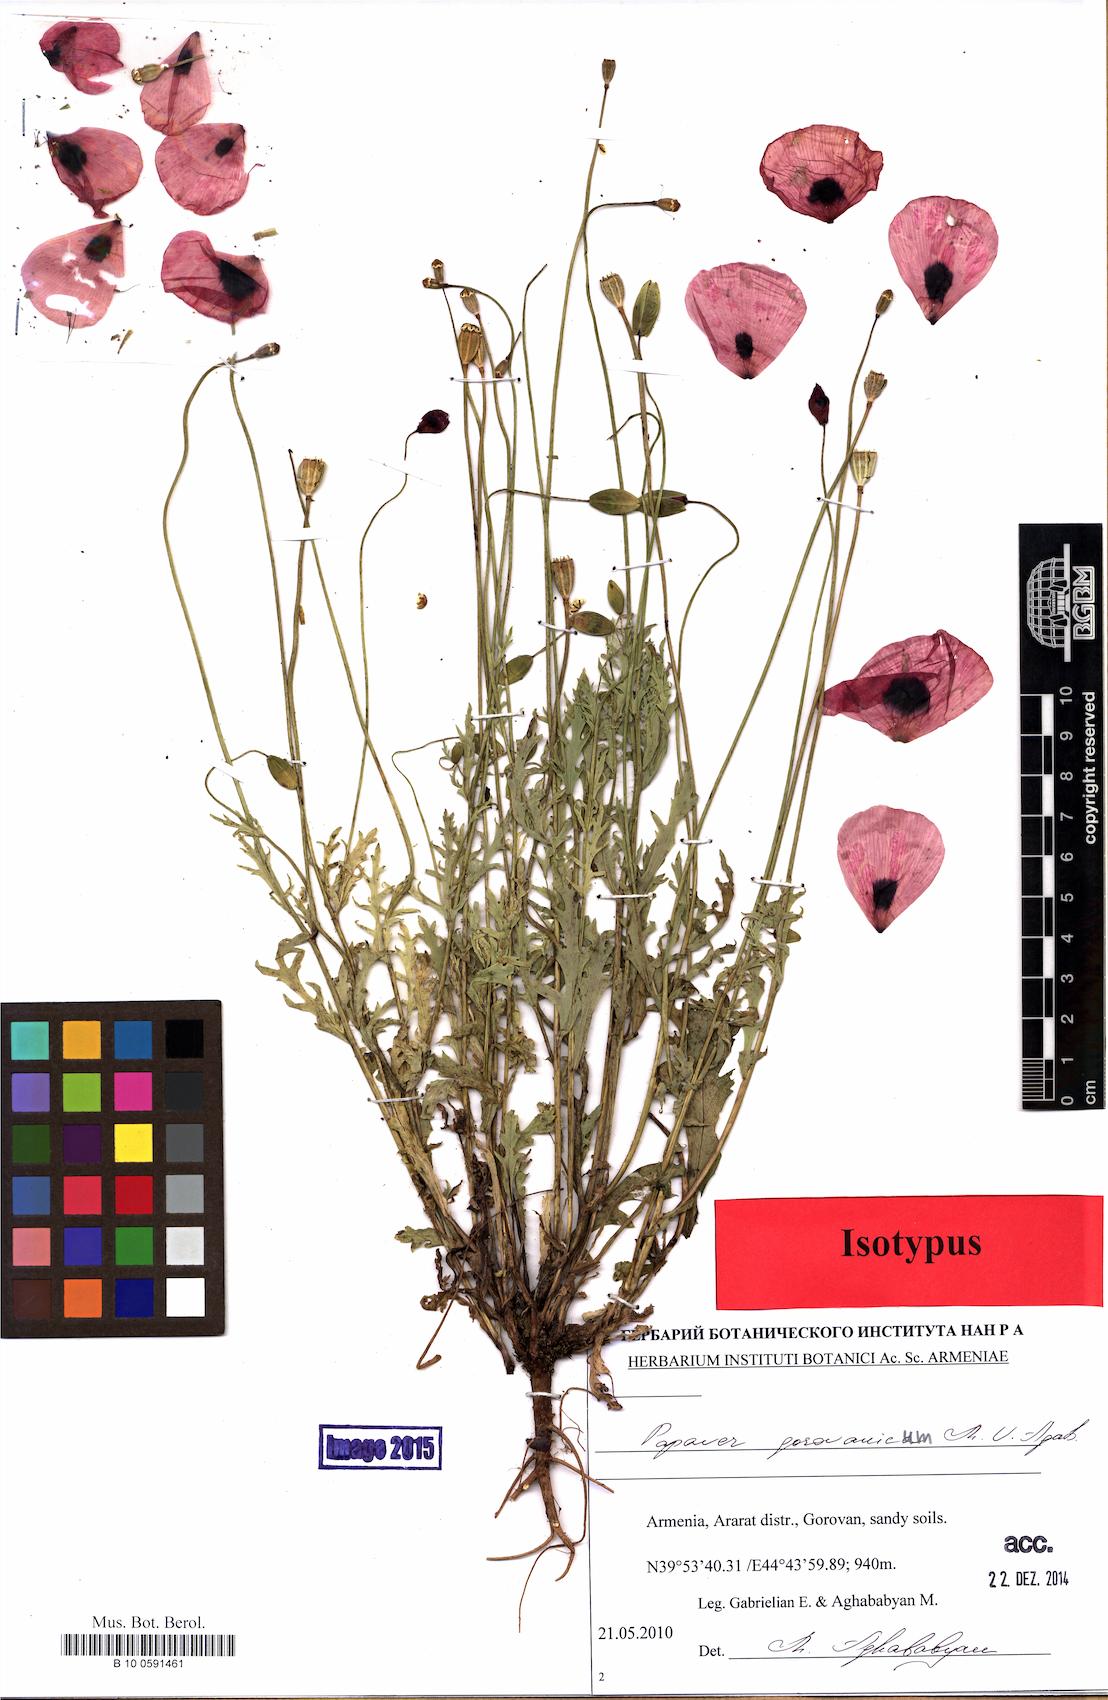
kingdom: Plantae
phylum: Tracheophyta
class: Magnoliopsida
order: Ranunculales
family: Papaveraceae
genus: Papaver
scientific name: Papaver gorovanicum
